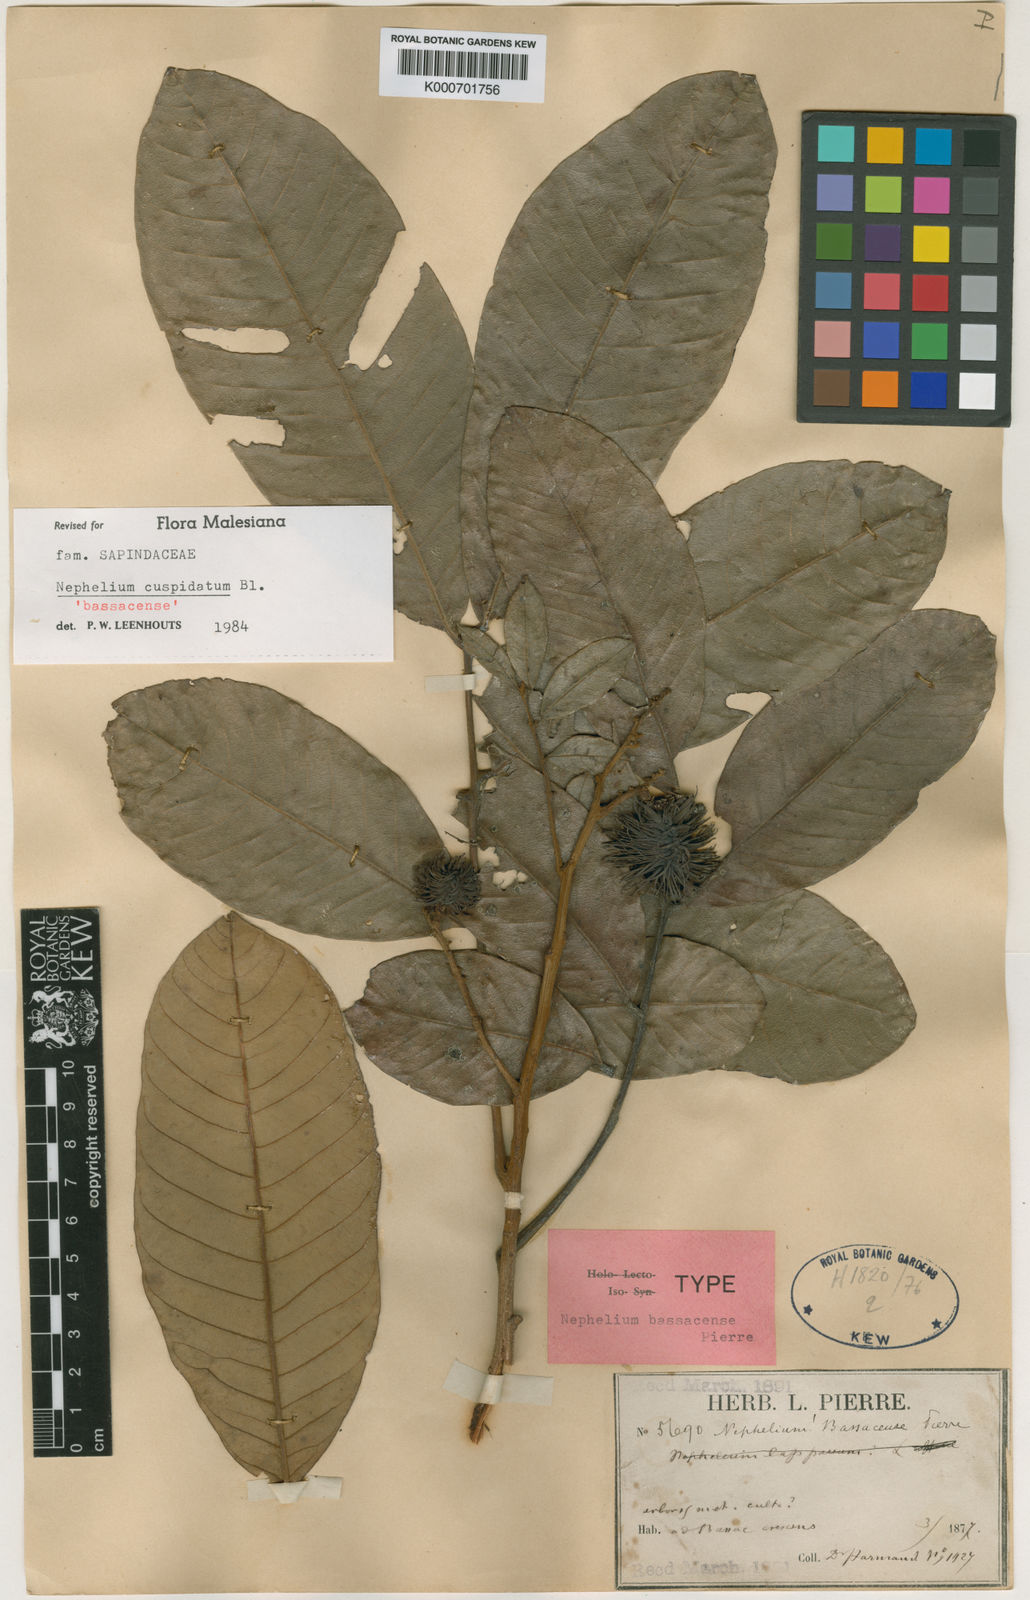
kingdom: Plantae
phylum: Tracheophyta
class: Magnoliopsida
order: Sapindales
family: Sapindaceae
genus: Nephelium
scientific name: Nephelium cuspidatum
